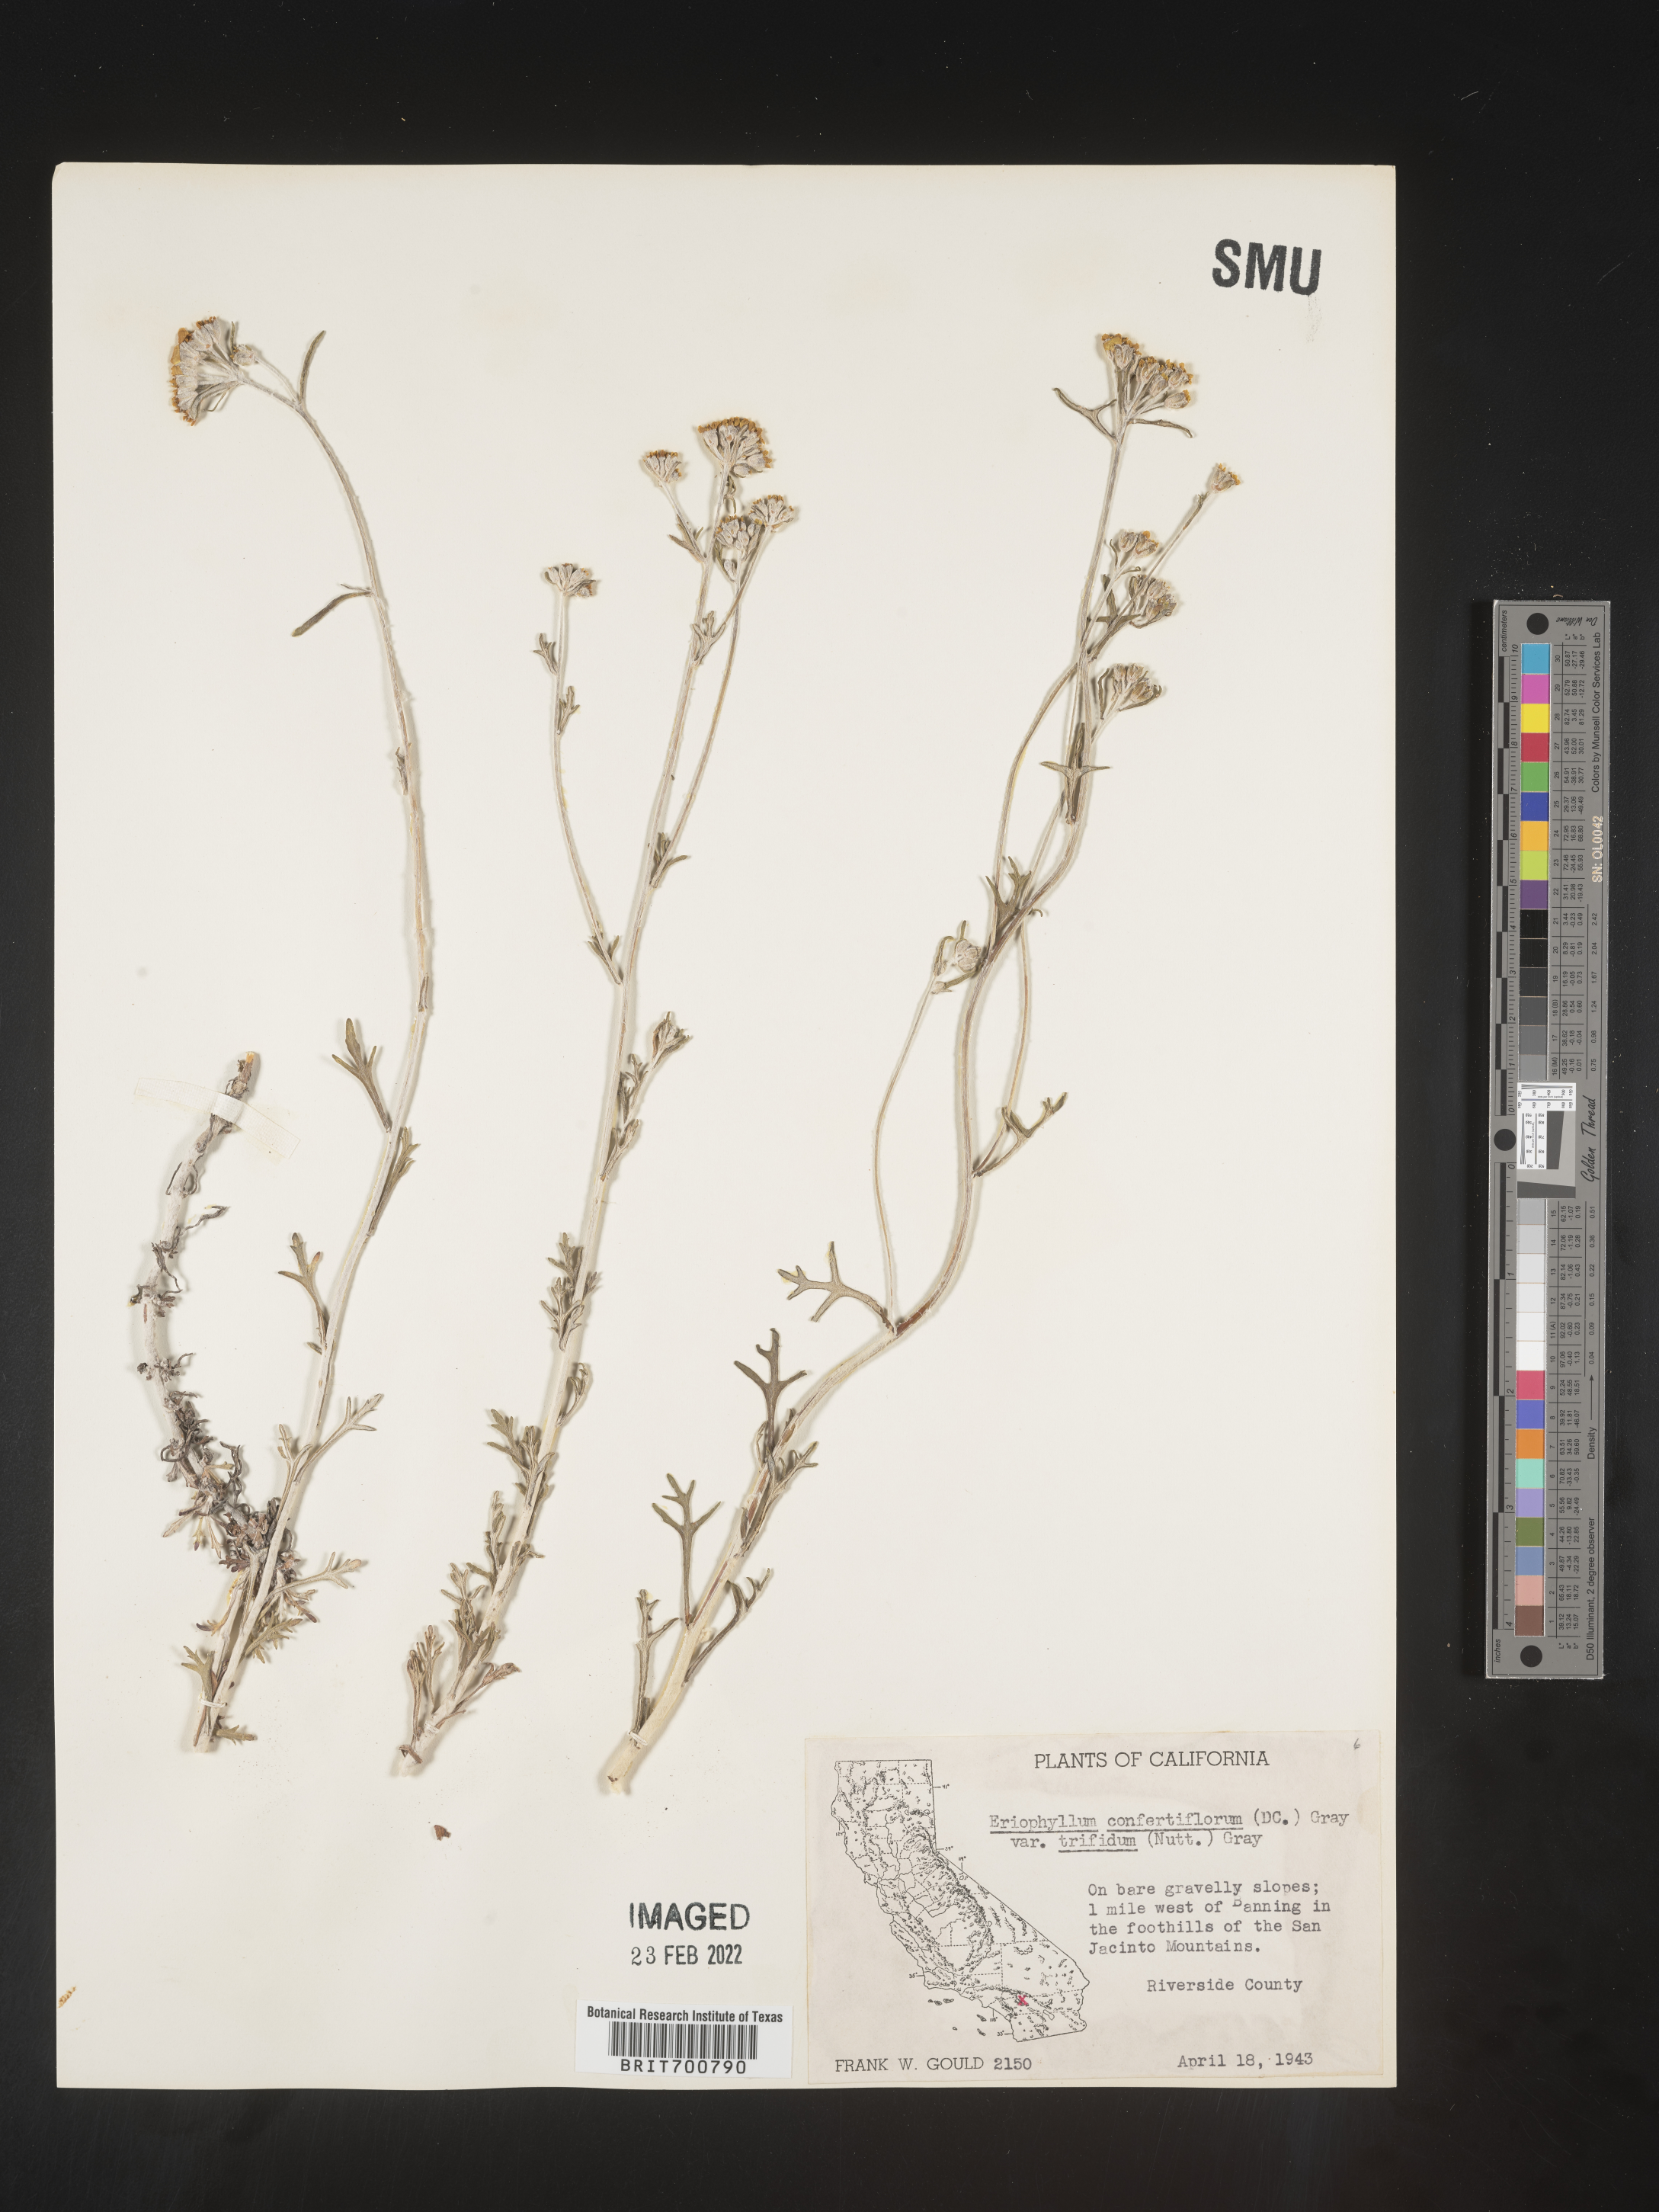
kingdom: Plantae
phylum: Tracheophyta
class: Magnoliopsida
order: Asterales
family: Asteraceae
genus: Eriophyllum
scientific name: Eriophyllum confertiflorum
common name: Golden-yarrow
